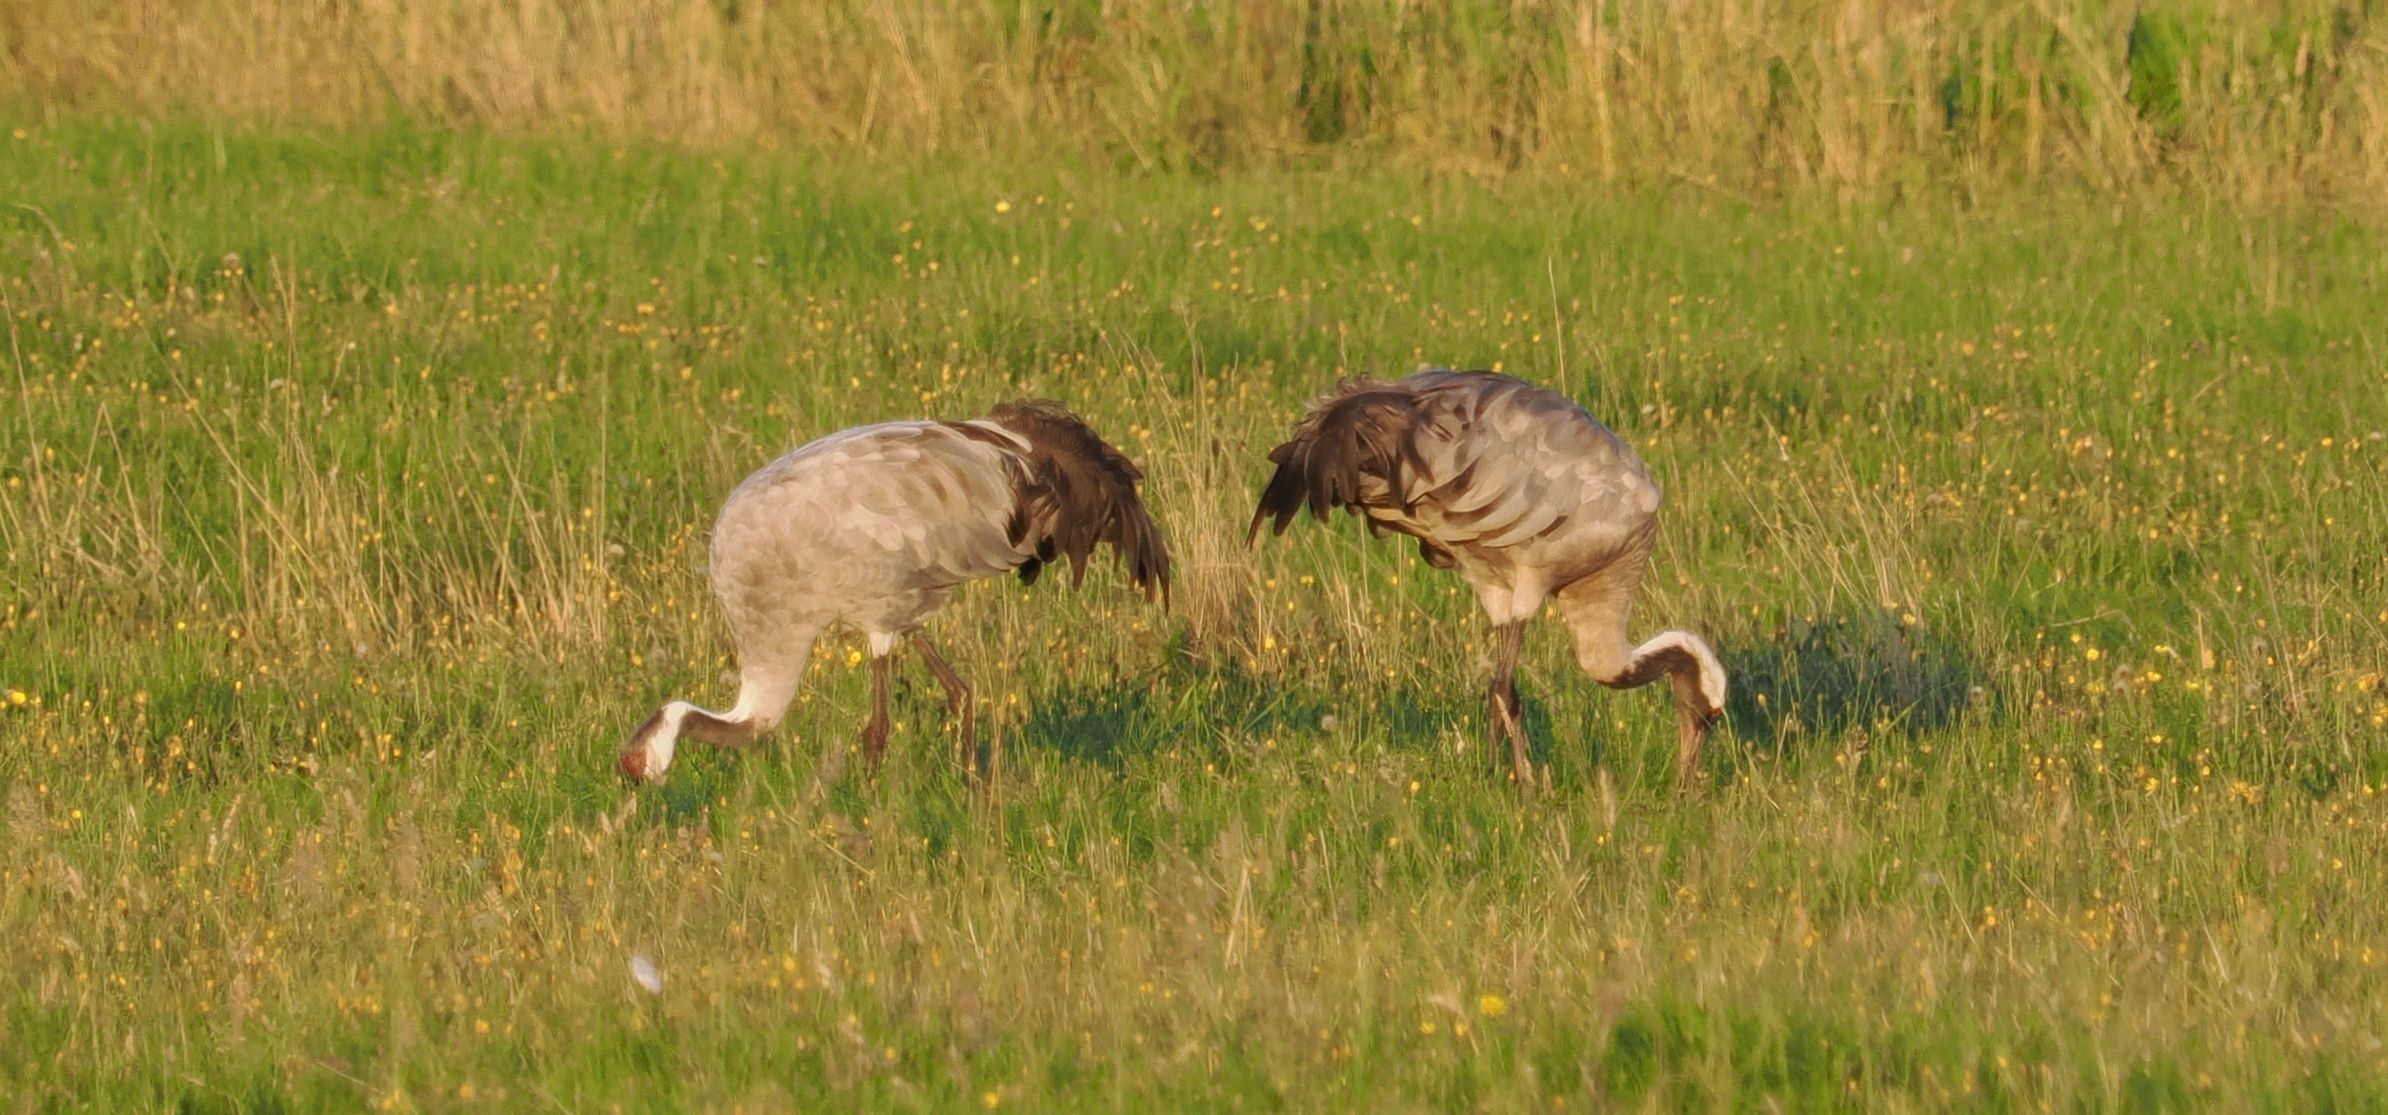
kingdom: Animalia
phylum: Chordata
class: Aves
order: Gruiformes
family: Gruidae
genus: Grus
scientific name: Grus grus
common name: Trane
